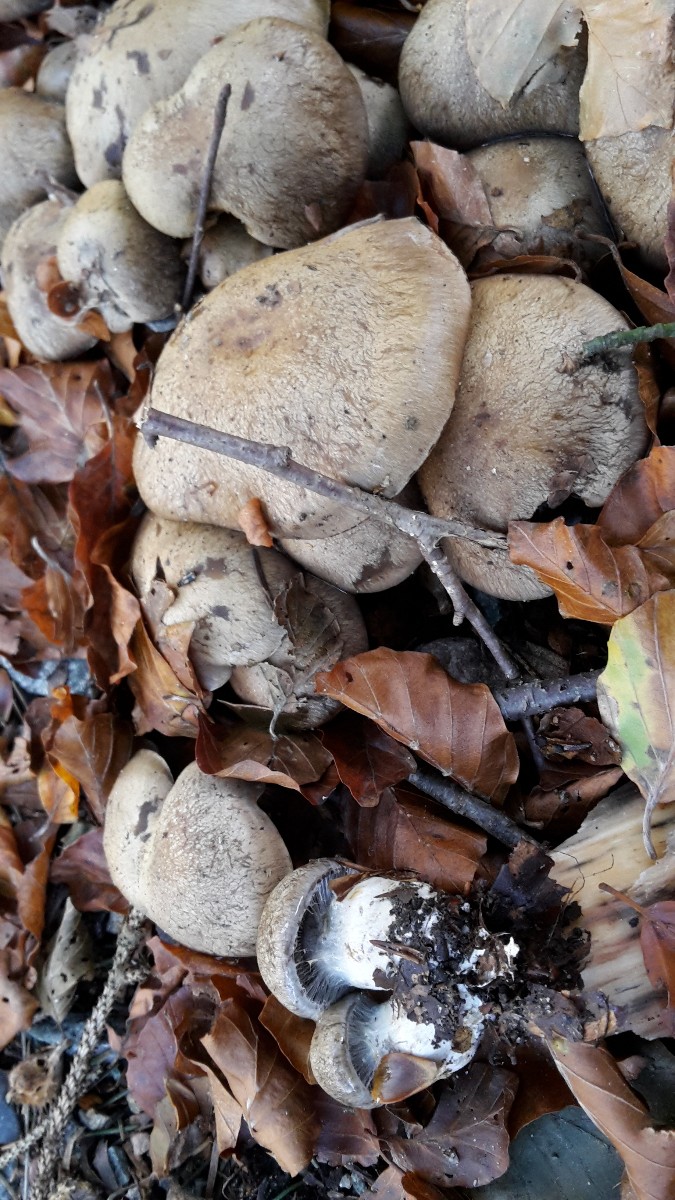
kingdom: Fungi
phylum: Basidiomycota
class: Agaricomycetes
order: Agaricales
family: Cortinariaceae
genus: Cortinarius
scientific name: Cortinarius
